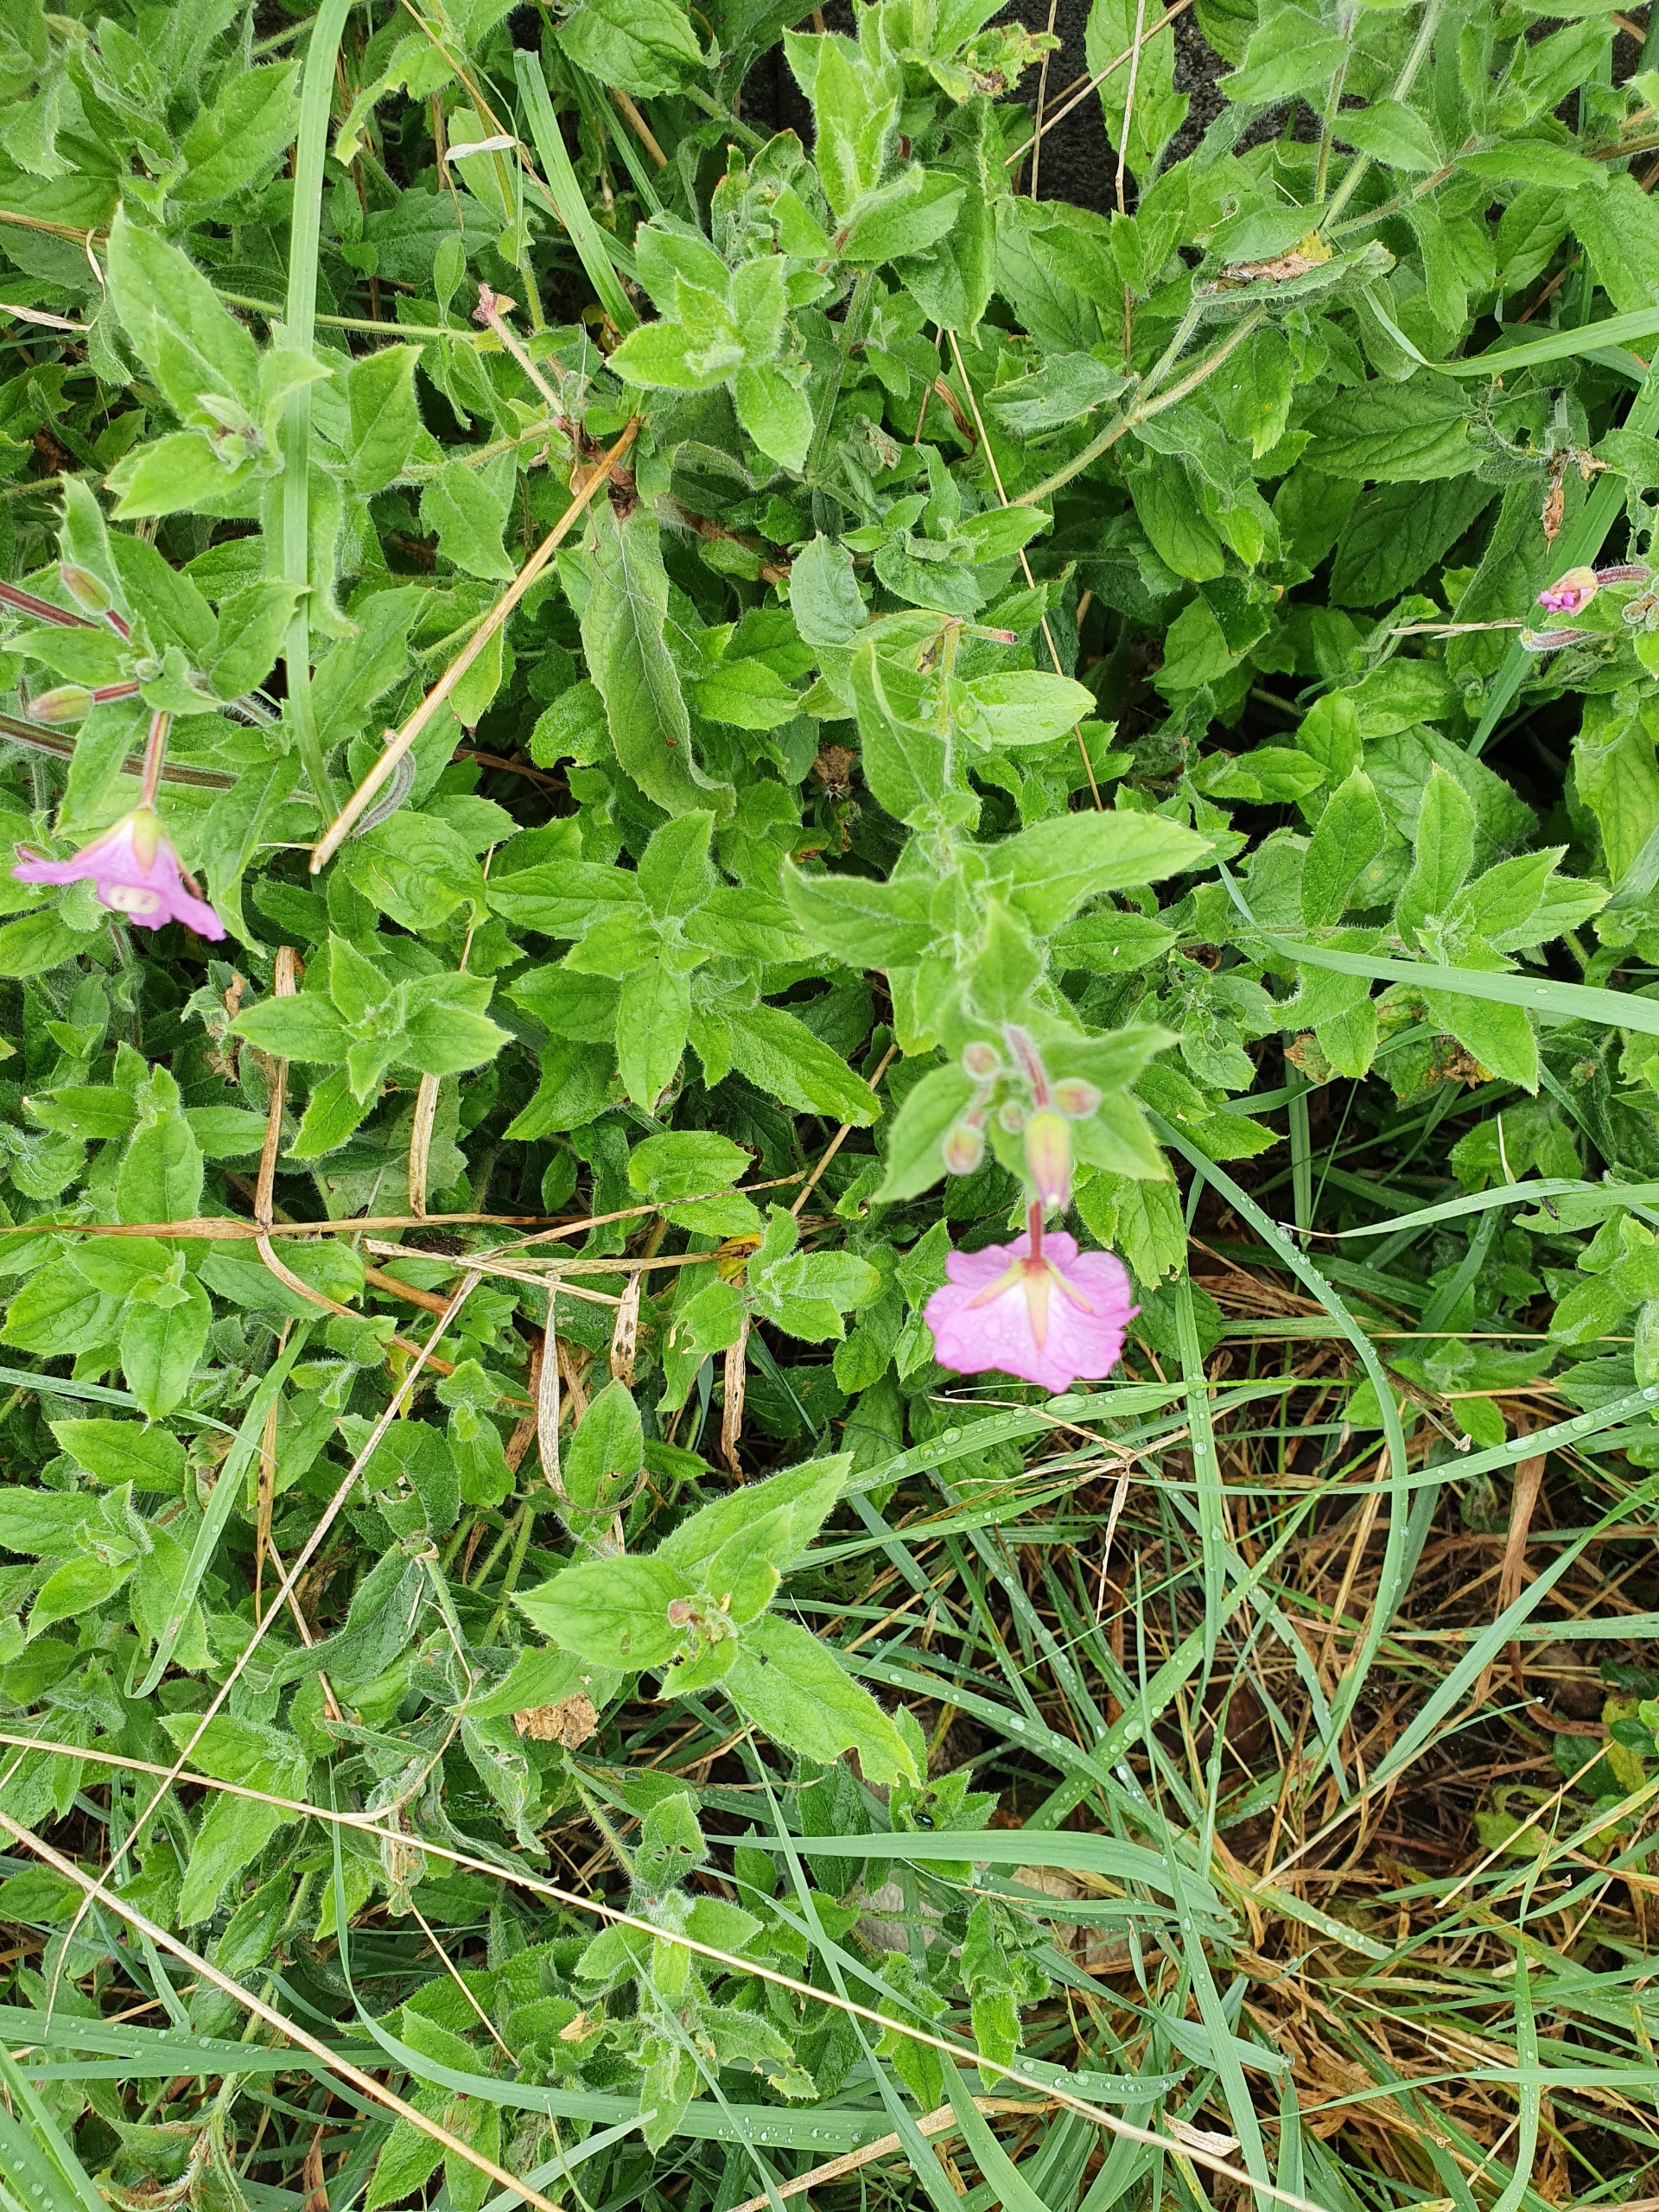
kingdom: Plantae
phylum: Tracheophyta
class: Magnoliopsida
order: Myrtales
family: Onagraceae
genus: Epilobium
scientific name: Epilobium hirsutum
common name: Lådden dueurt
